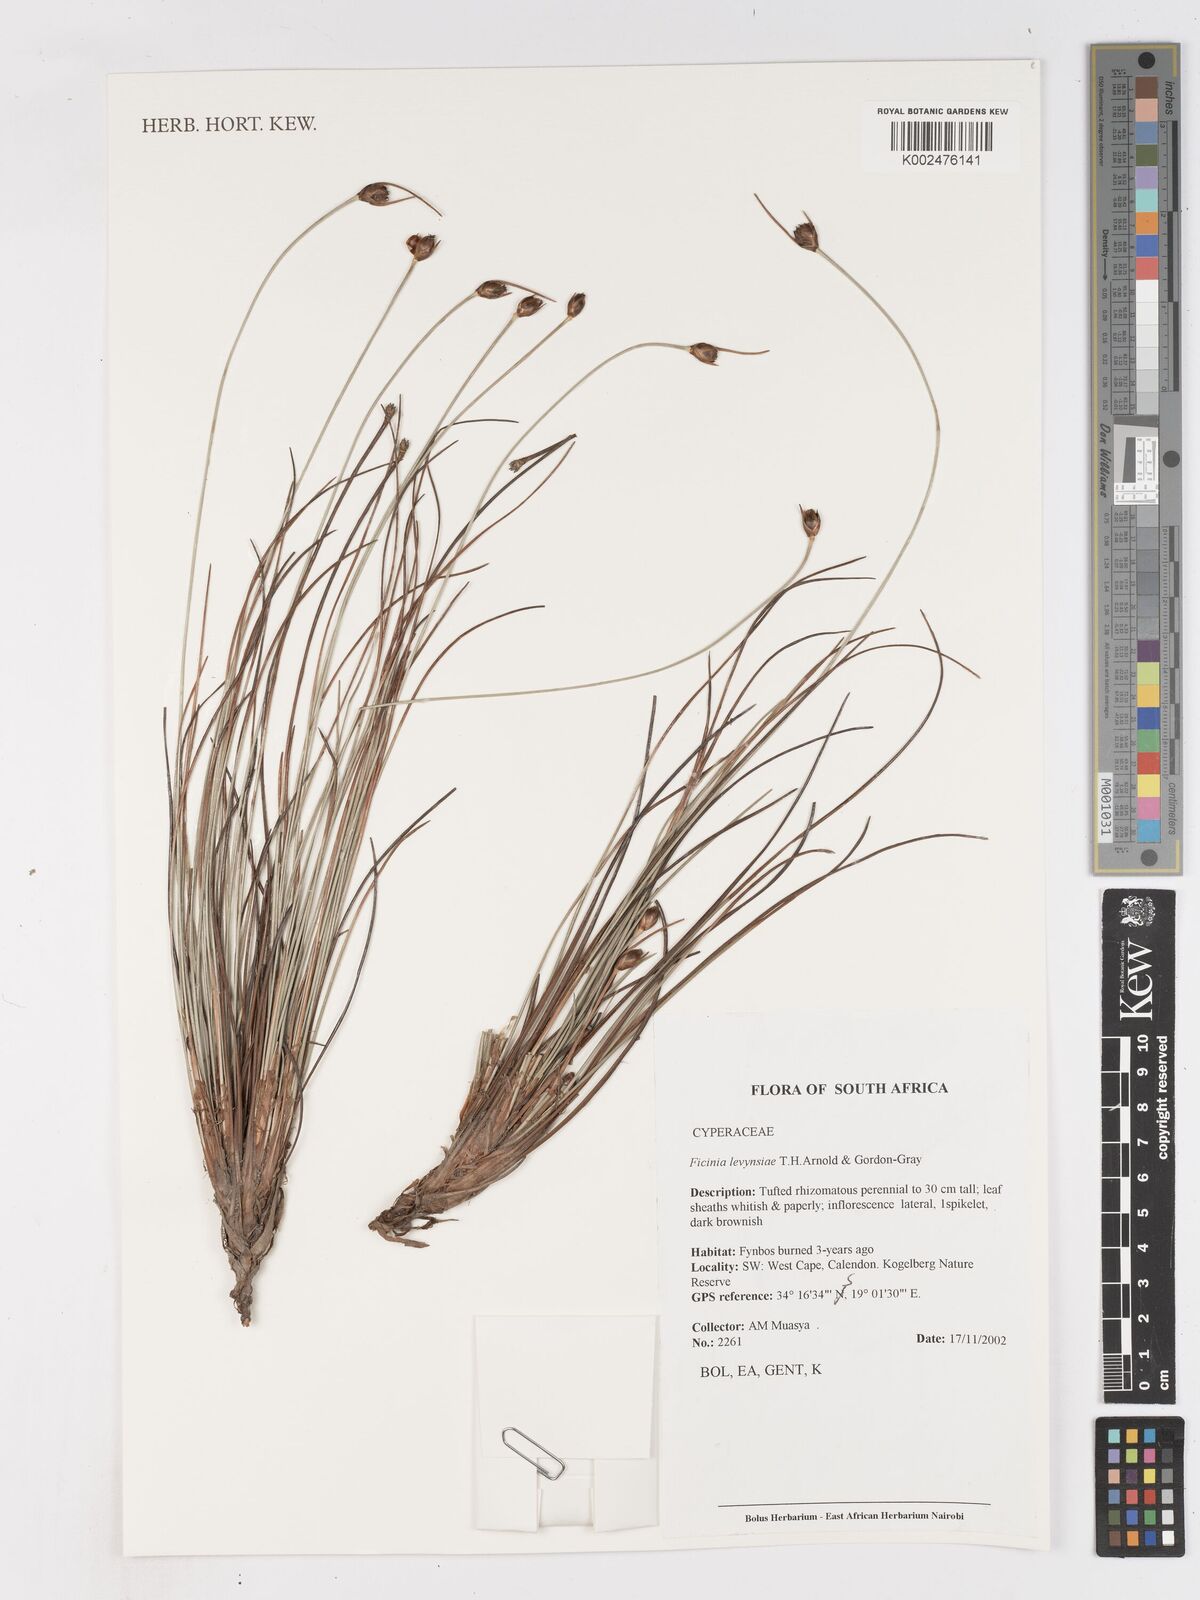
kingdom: Plantae
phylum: Tracheophyta
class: Liliopsida
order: Poales
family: Cyperaceae
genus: Ficinia
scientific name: Ficinia levynsiae
